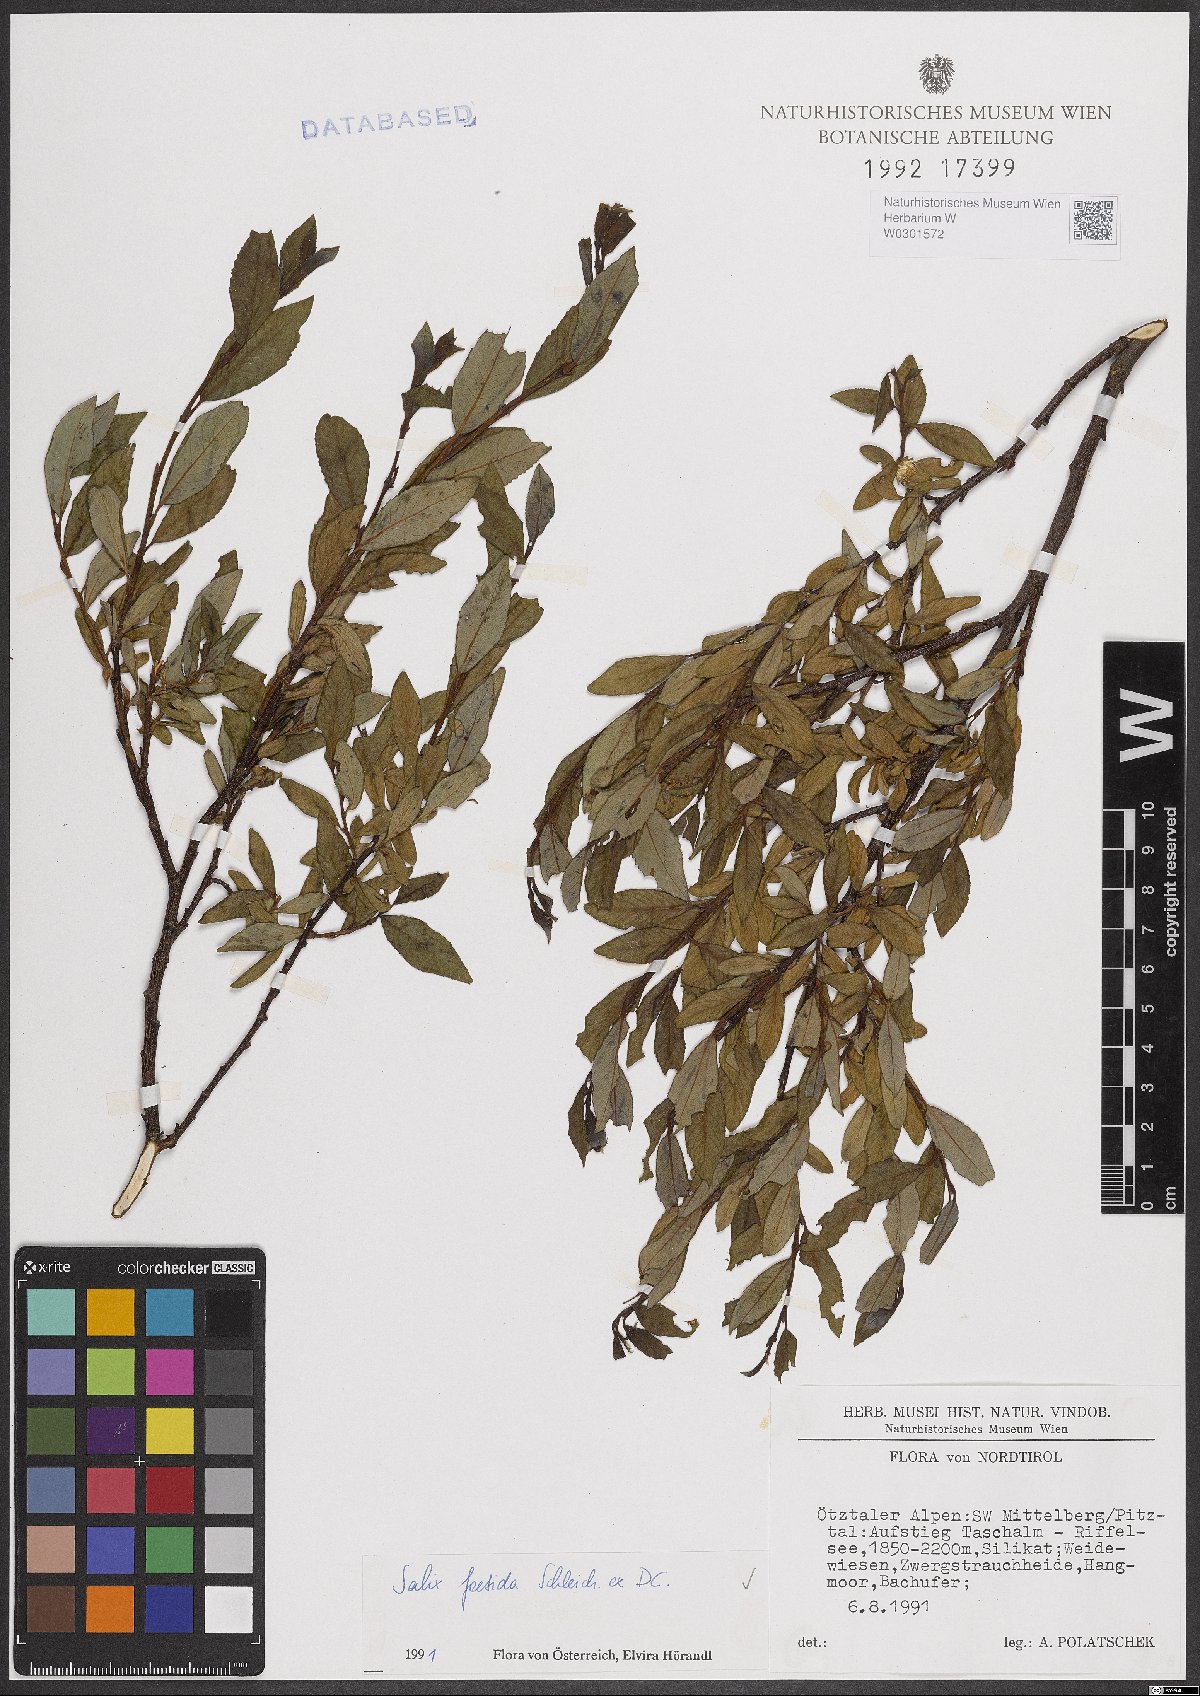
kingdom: Plantae
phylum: Tracheophyta
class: Magnoliopsida
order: Malpighiales
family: Salicaceae
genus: Salix
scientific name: Salix foetida
